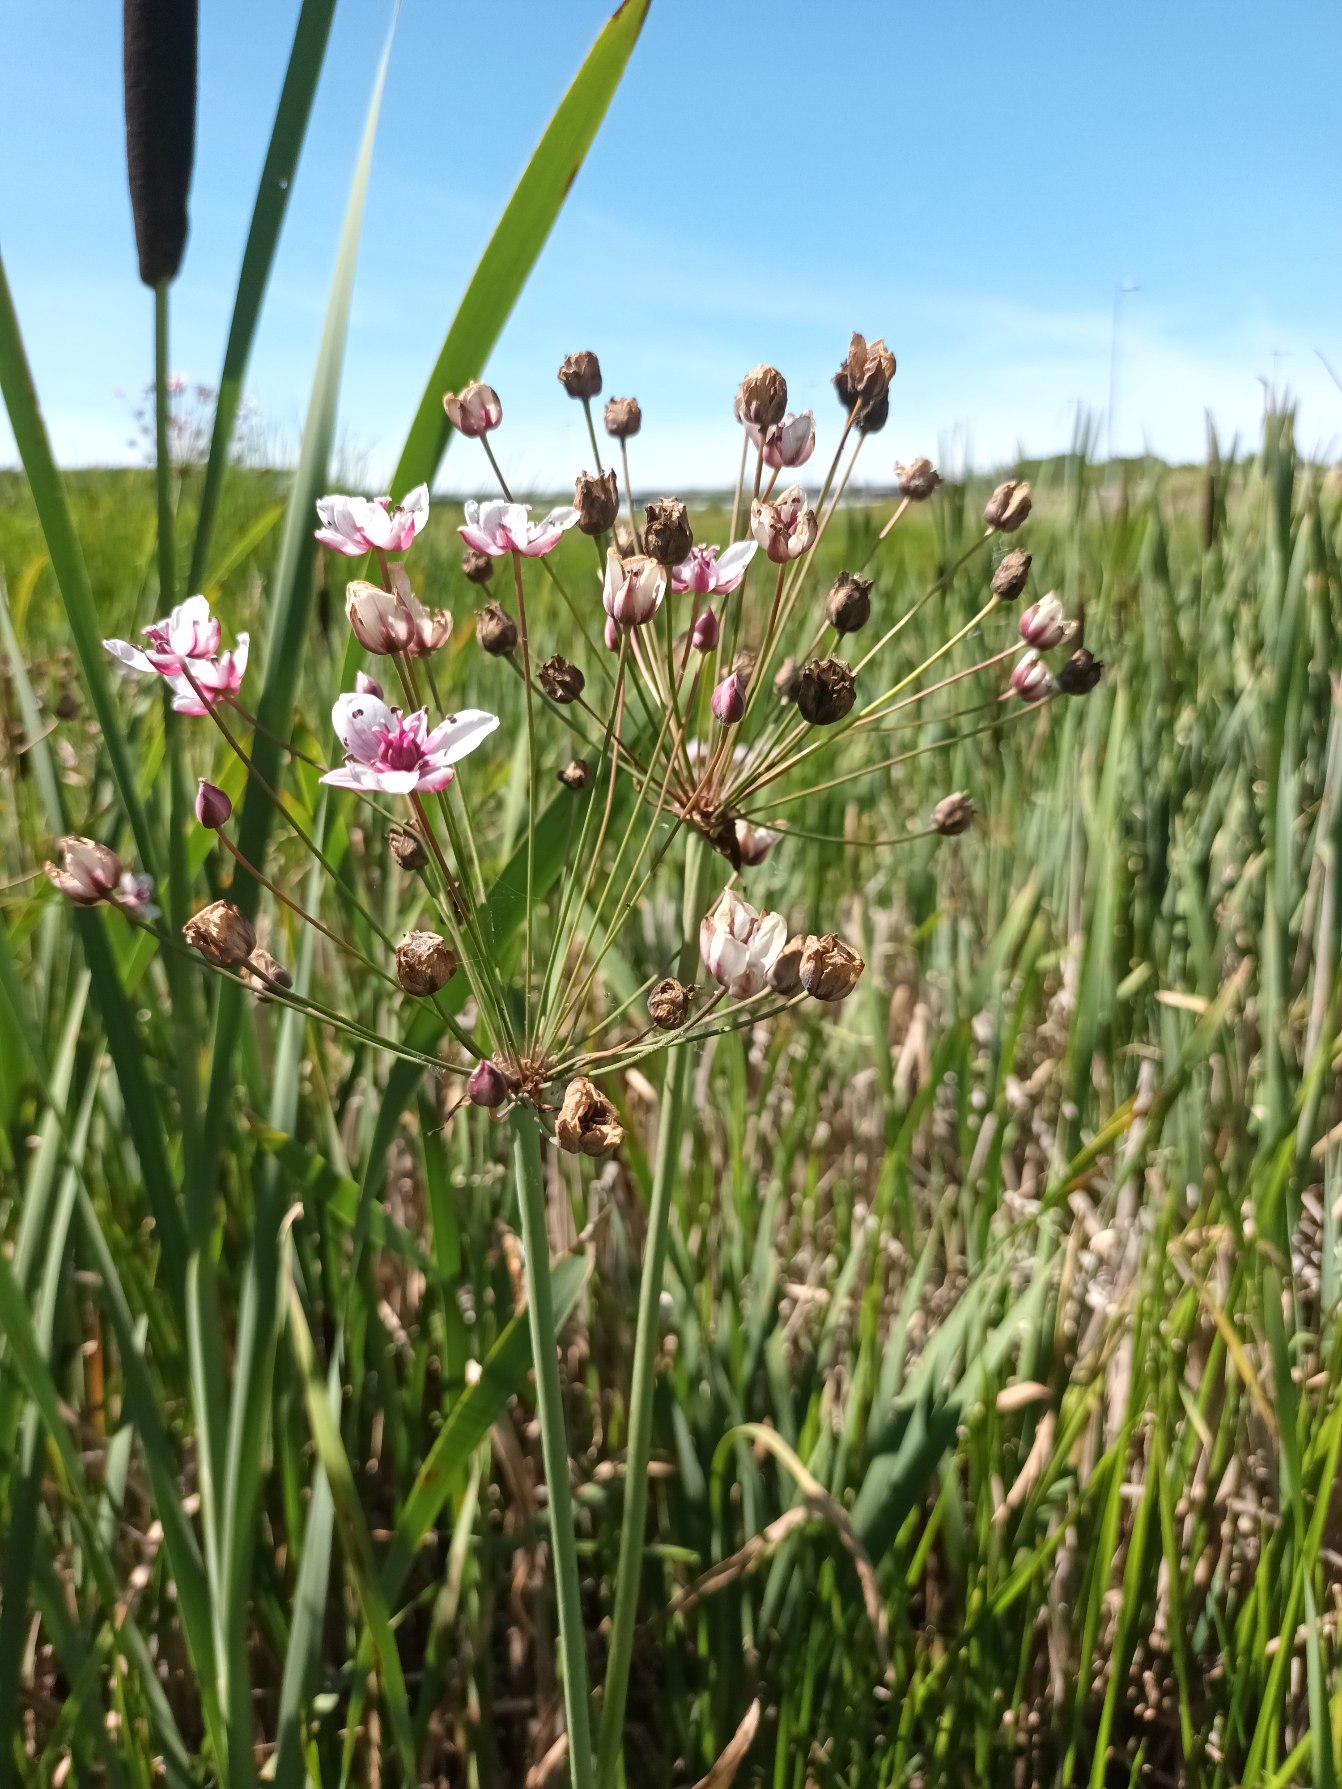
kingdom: Plantae
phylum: Tracheophyta
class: Liliopsida
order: Alismatales
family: Butomaceae
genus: Butomus
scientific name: Butomus umbellatus
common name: Brudelys
